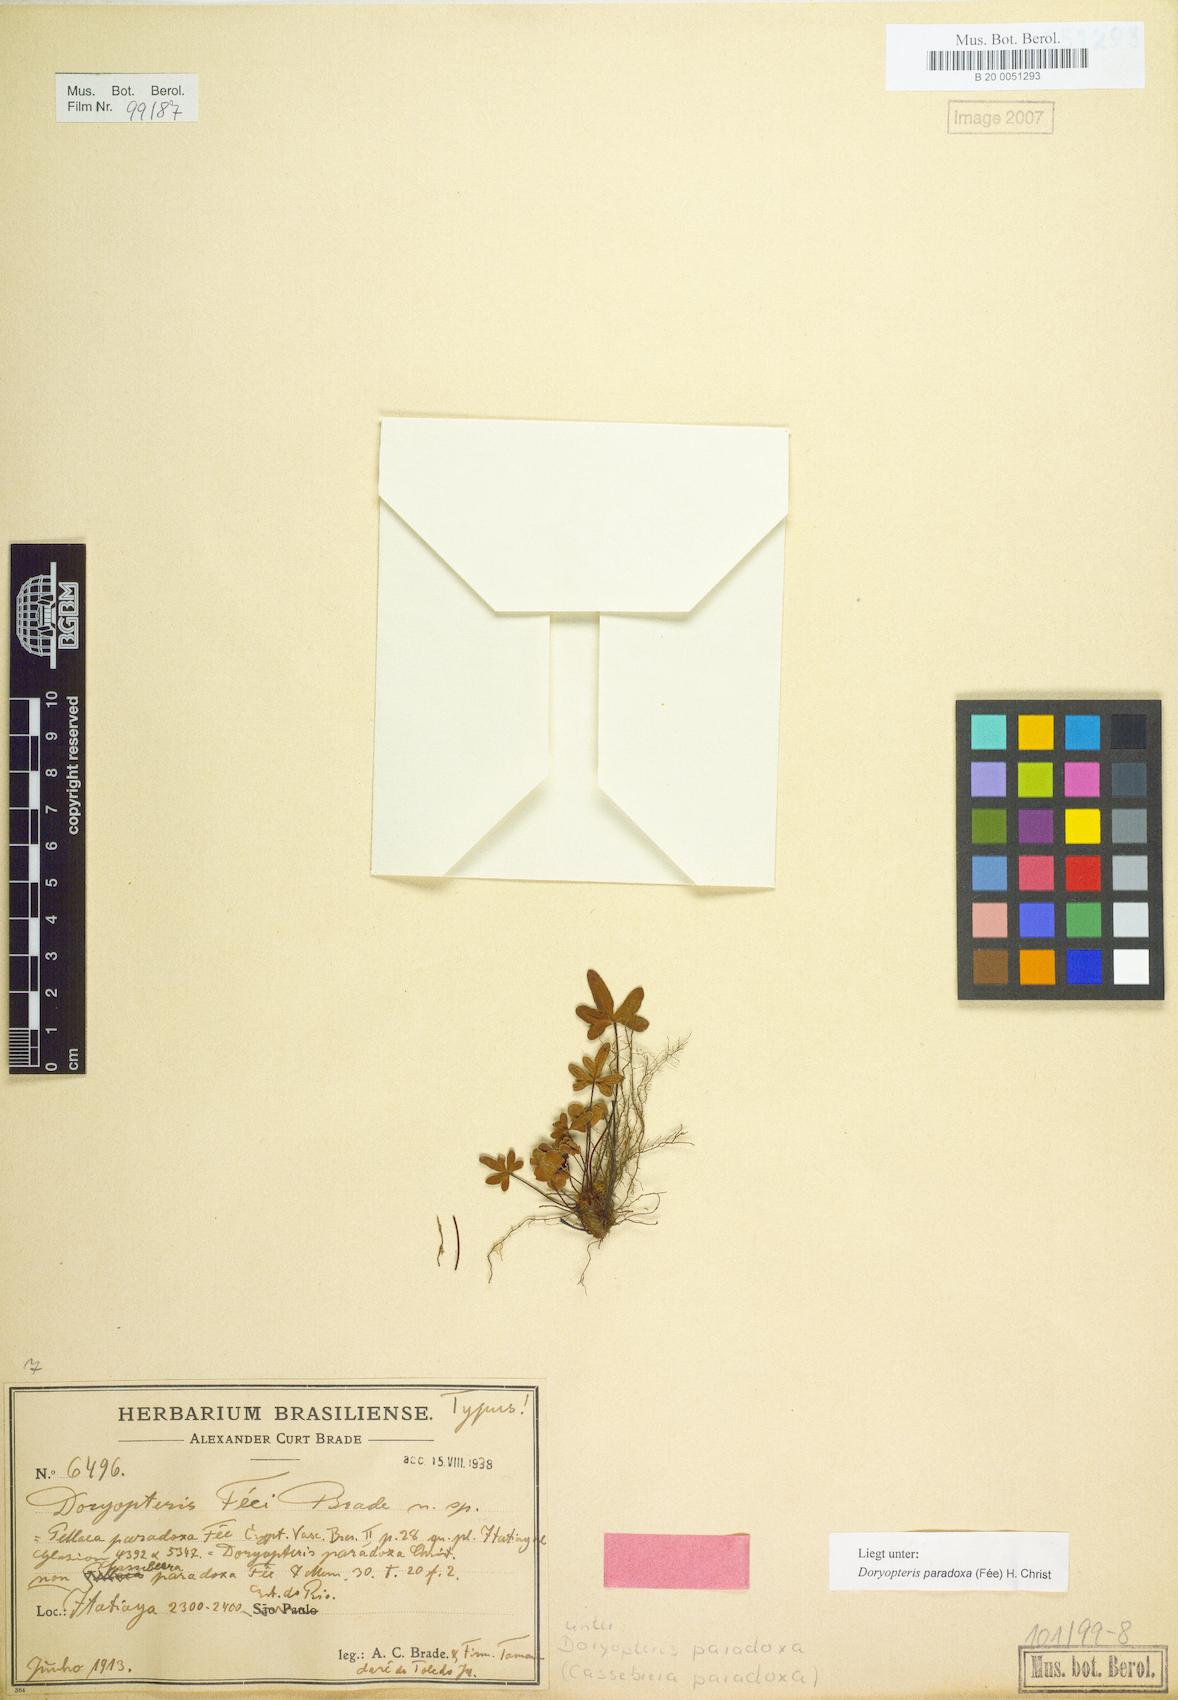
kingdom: Plantae
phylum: Tracheophyta
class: Polypodiopsida
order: Polypodiales
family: Pteridaceae
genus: Lytoneuron
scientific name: Lytoneuron feei
